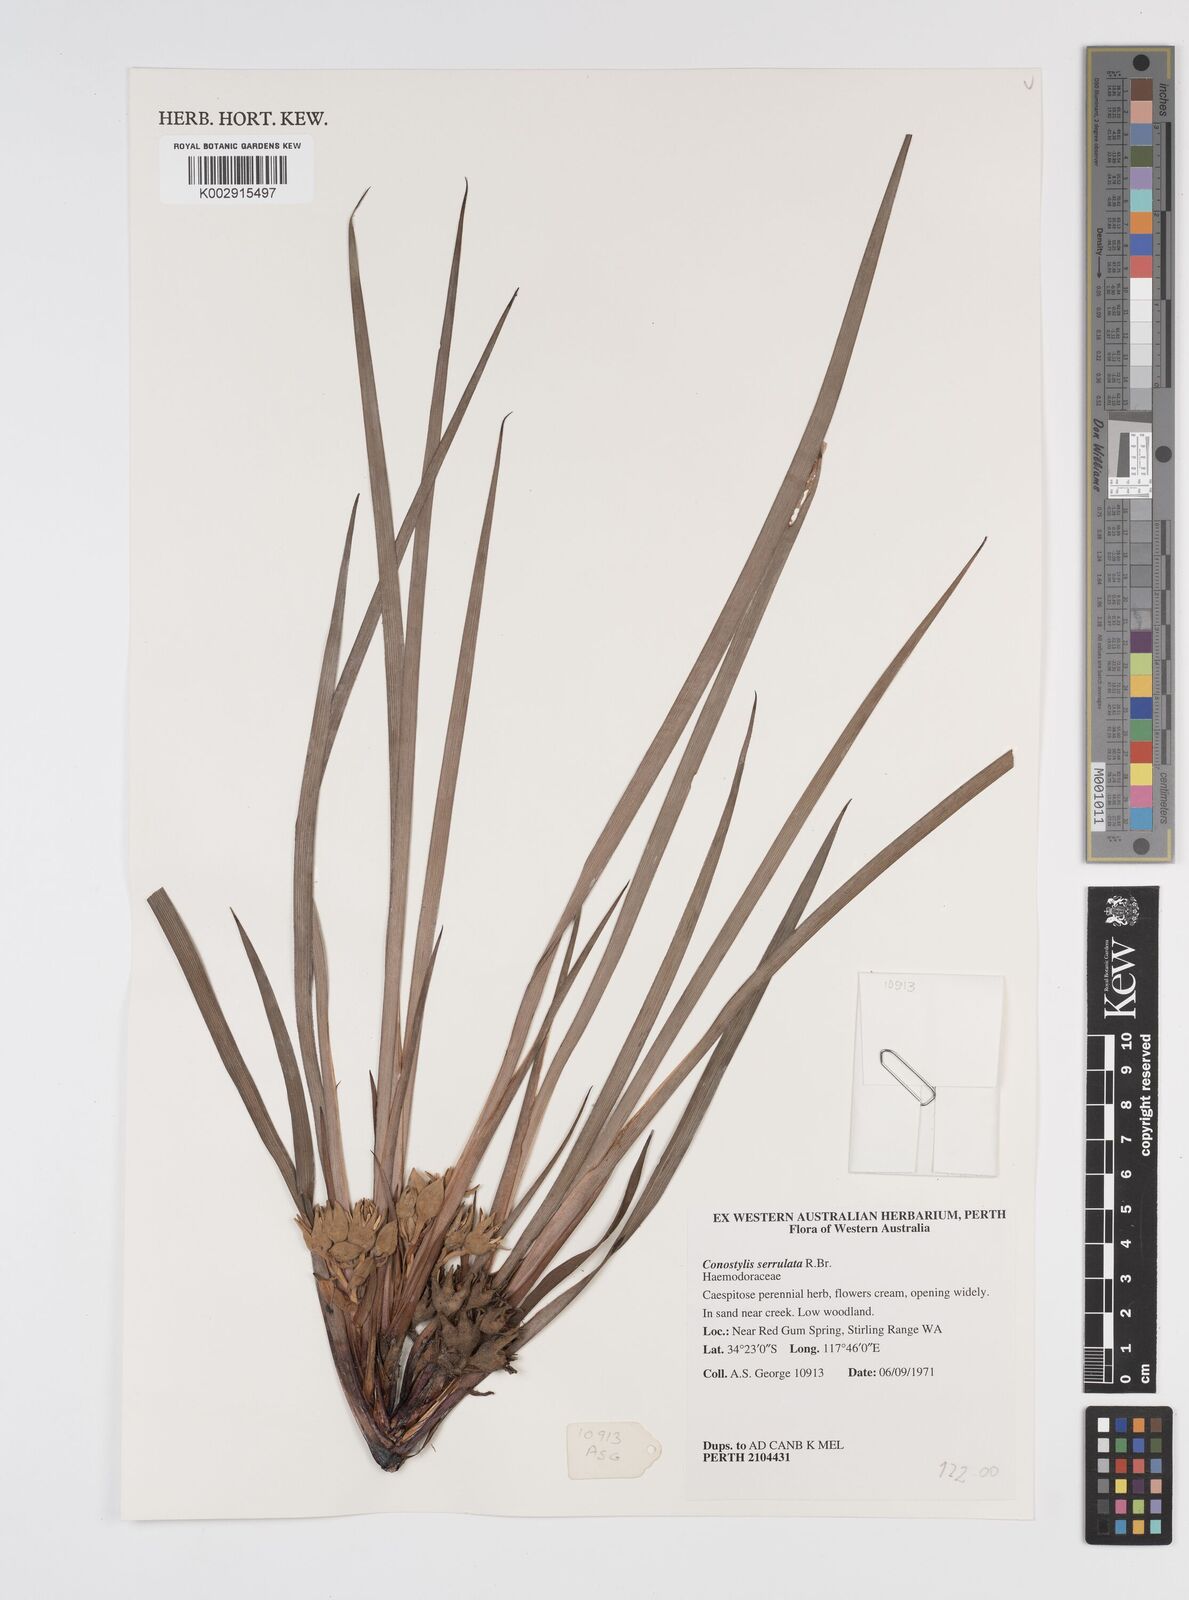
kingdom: Plantae
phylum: Tracheophyta
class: Liliopsida
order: Commelinales
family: Haemodoraceae
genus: Conostylis
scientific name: Conostylis serrulata
